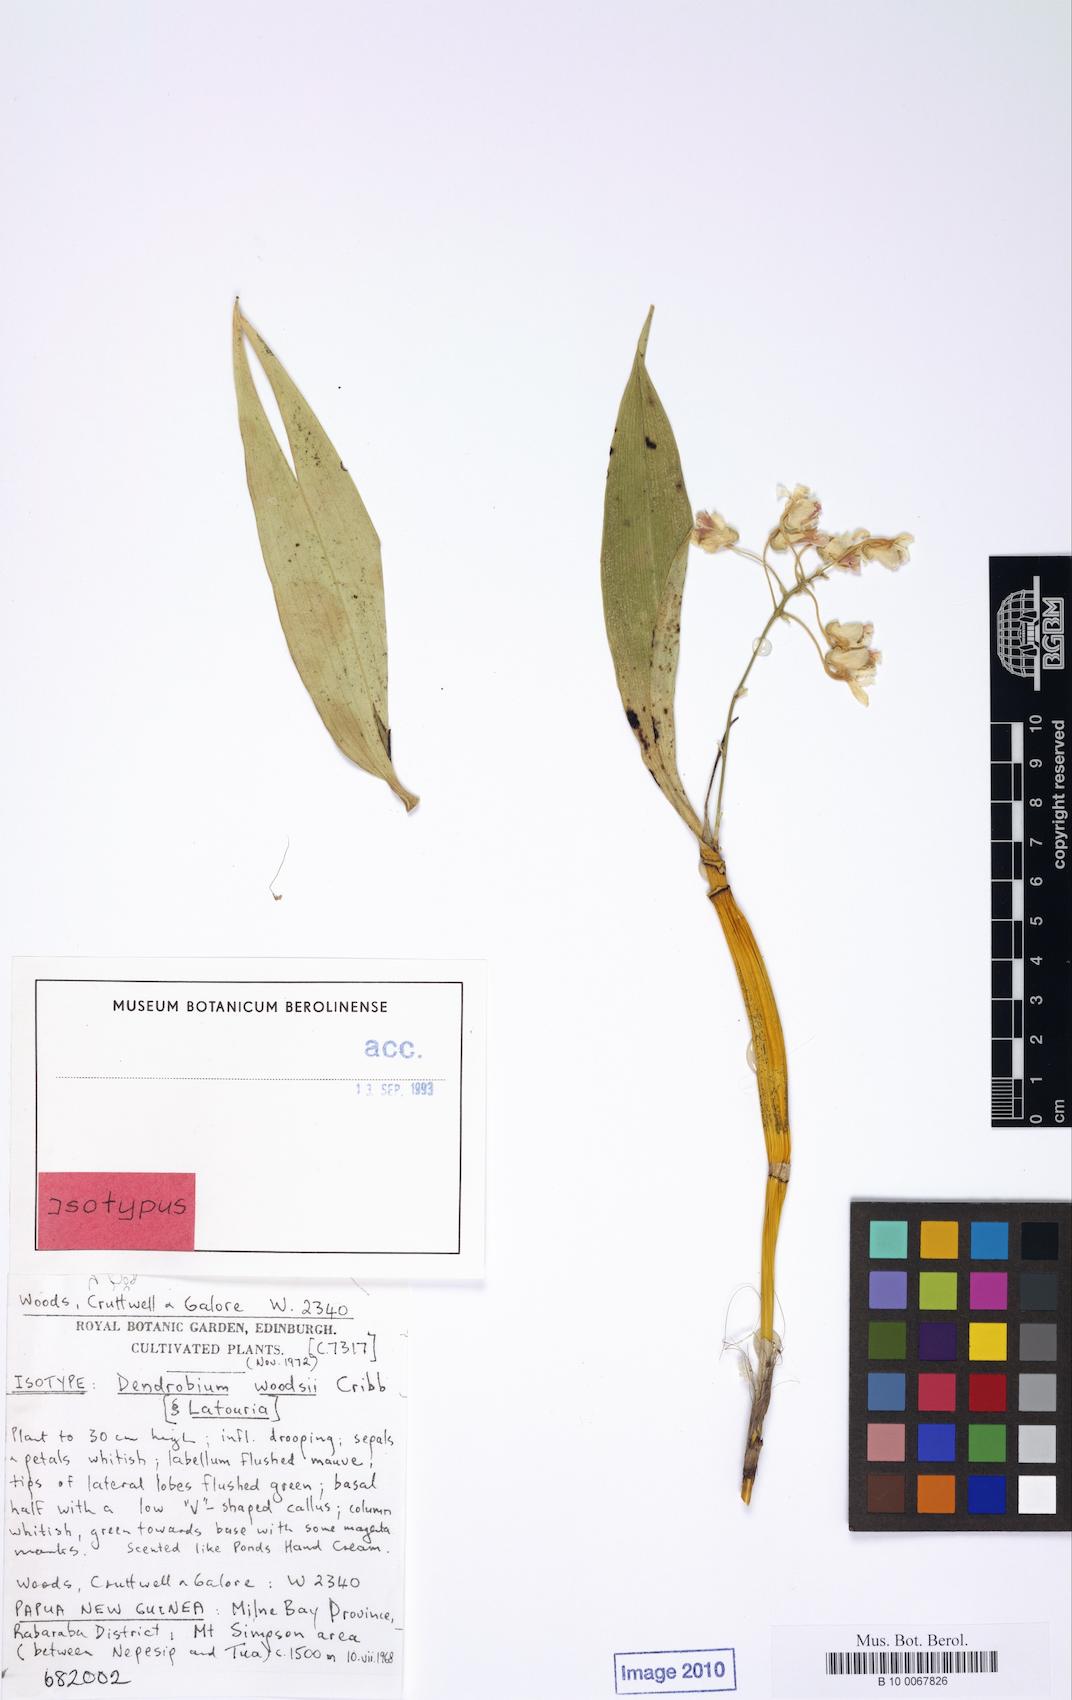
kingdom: Plantae
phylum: Tracheophyta
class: Liliopsida
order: Asparagales
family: Orchidaceae
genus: Dendrobium
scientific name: Dendrobium woodsii
